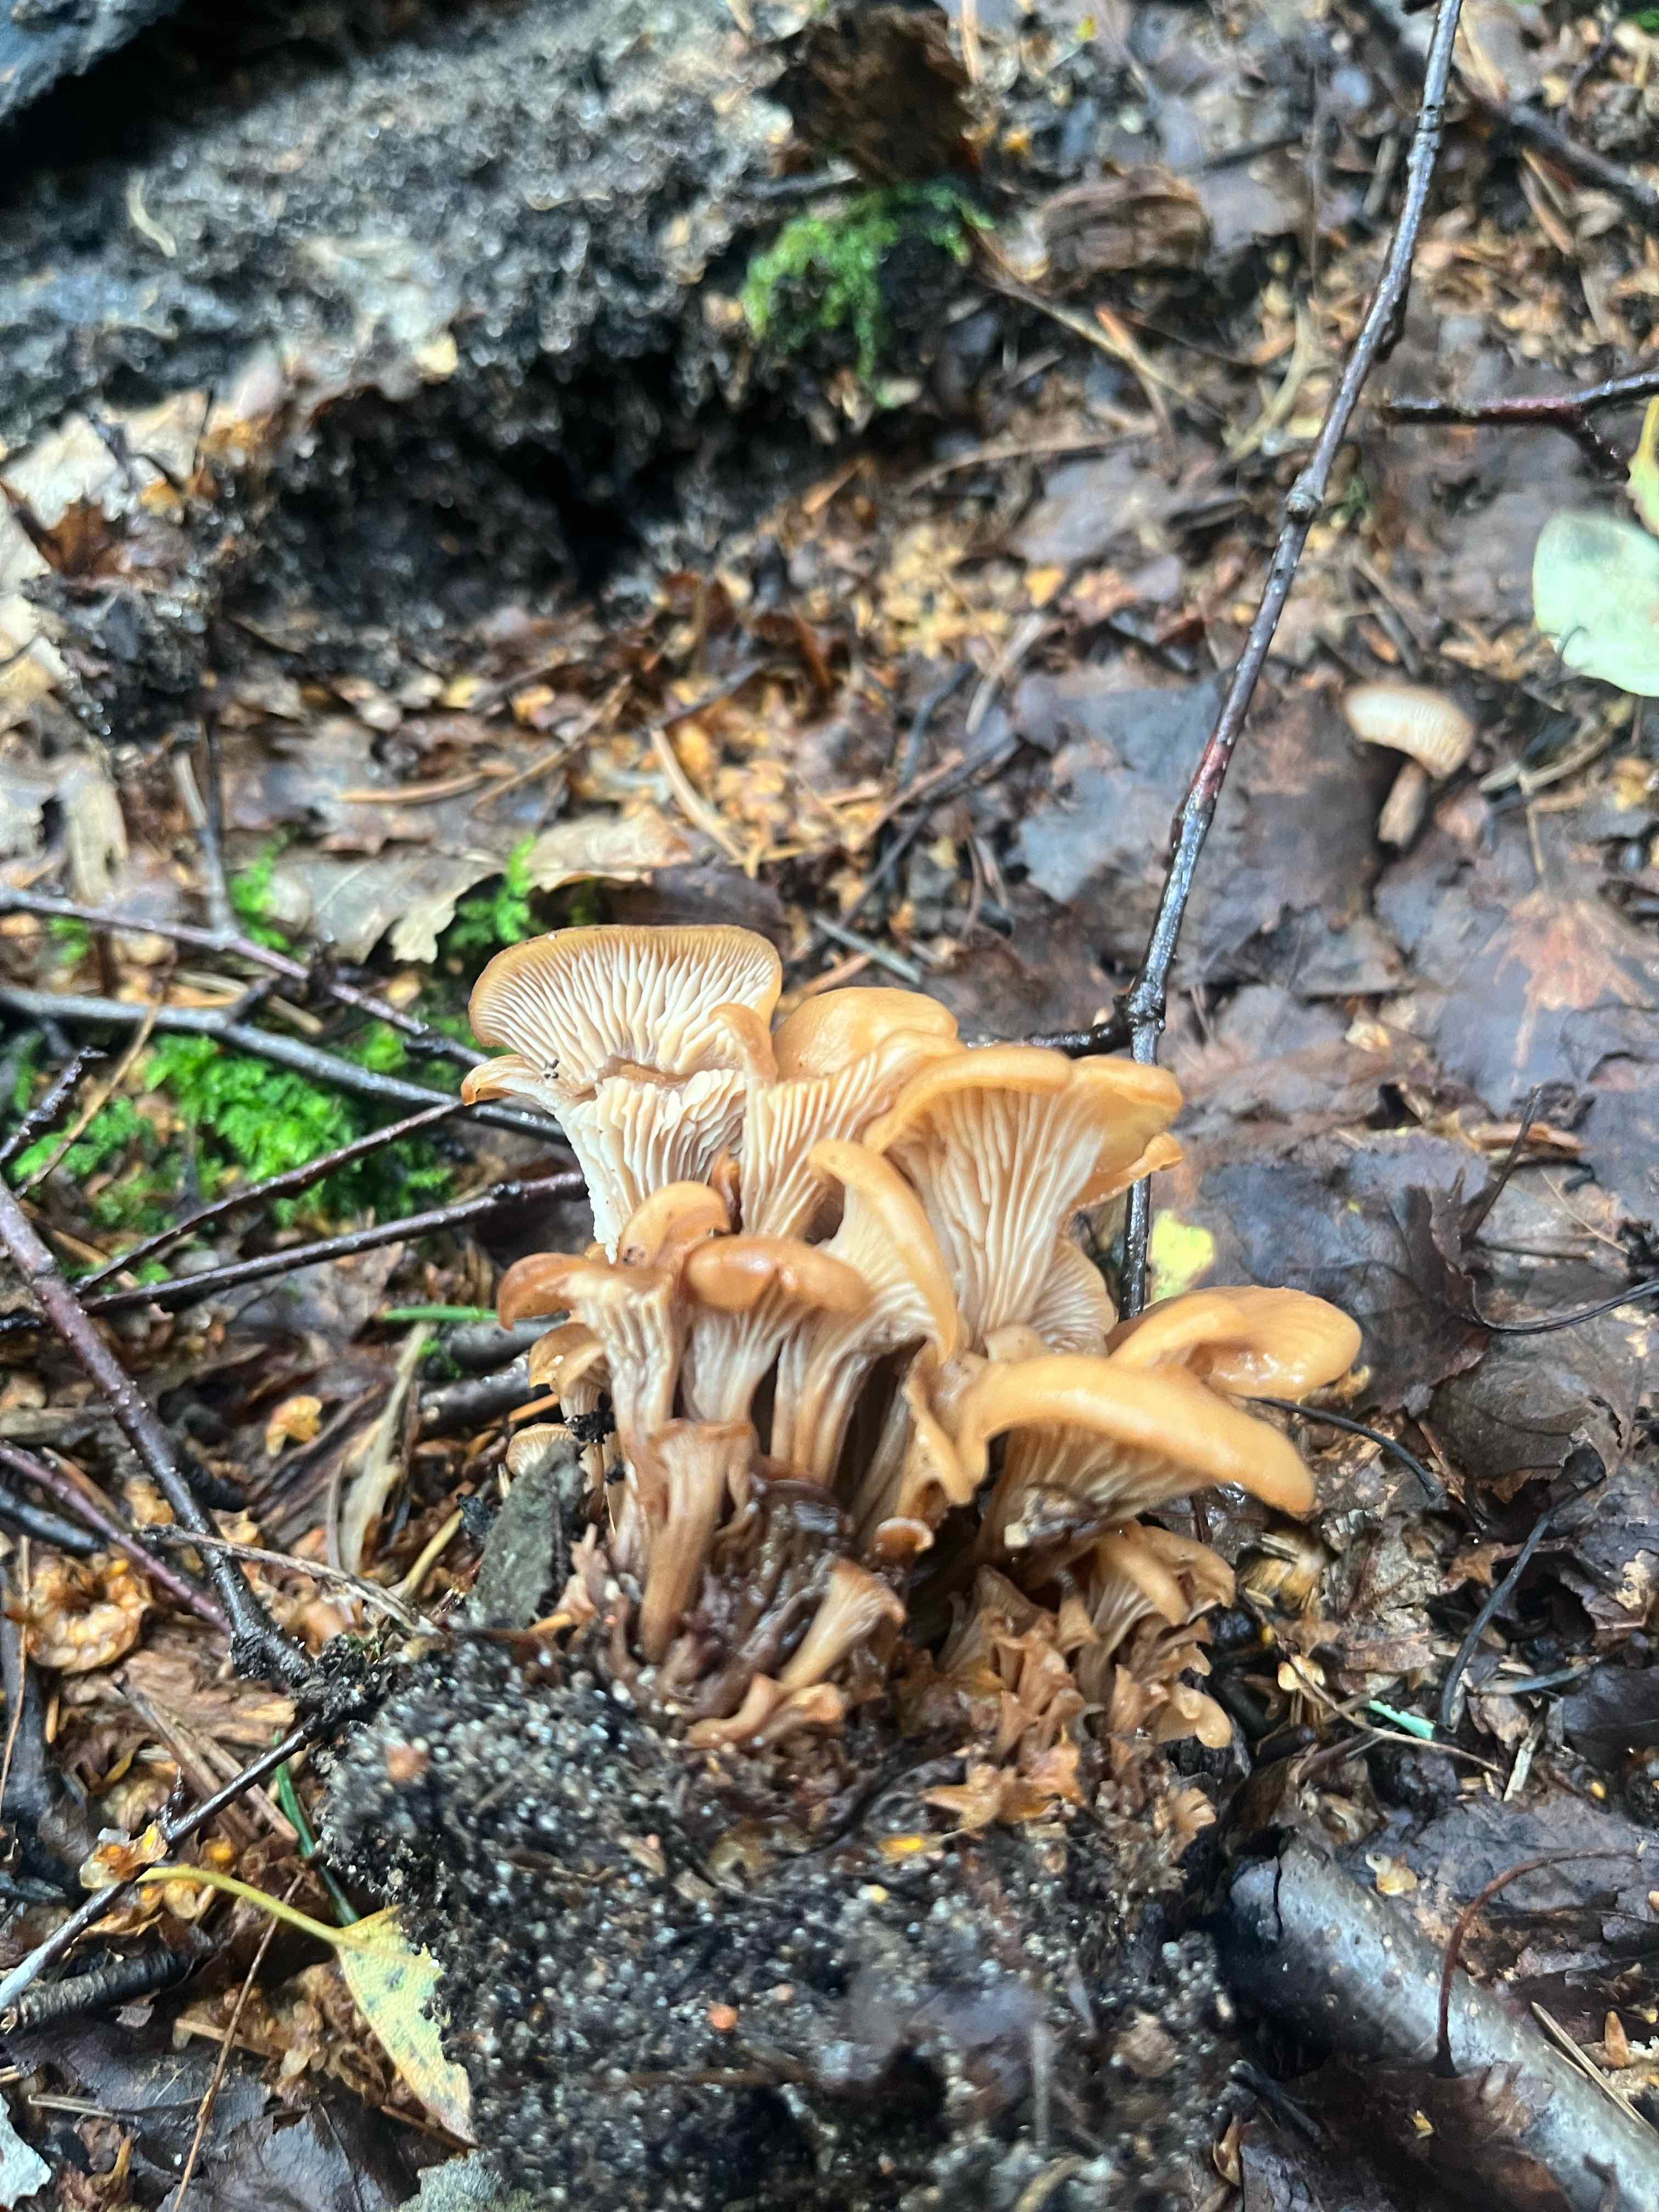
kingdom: Fungi
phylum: Basidiomycota
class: Agaricomycetes
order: Russulales
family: Auriscalpiaceae
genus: Lentinellus
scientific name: Lentinellus cochleatus
